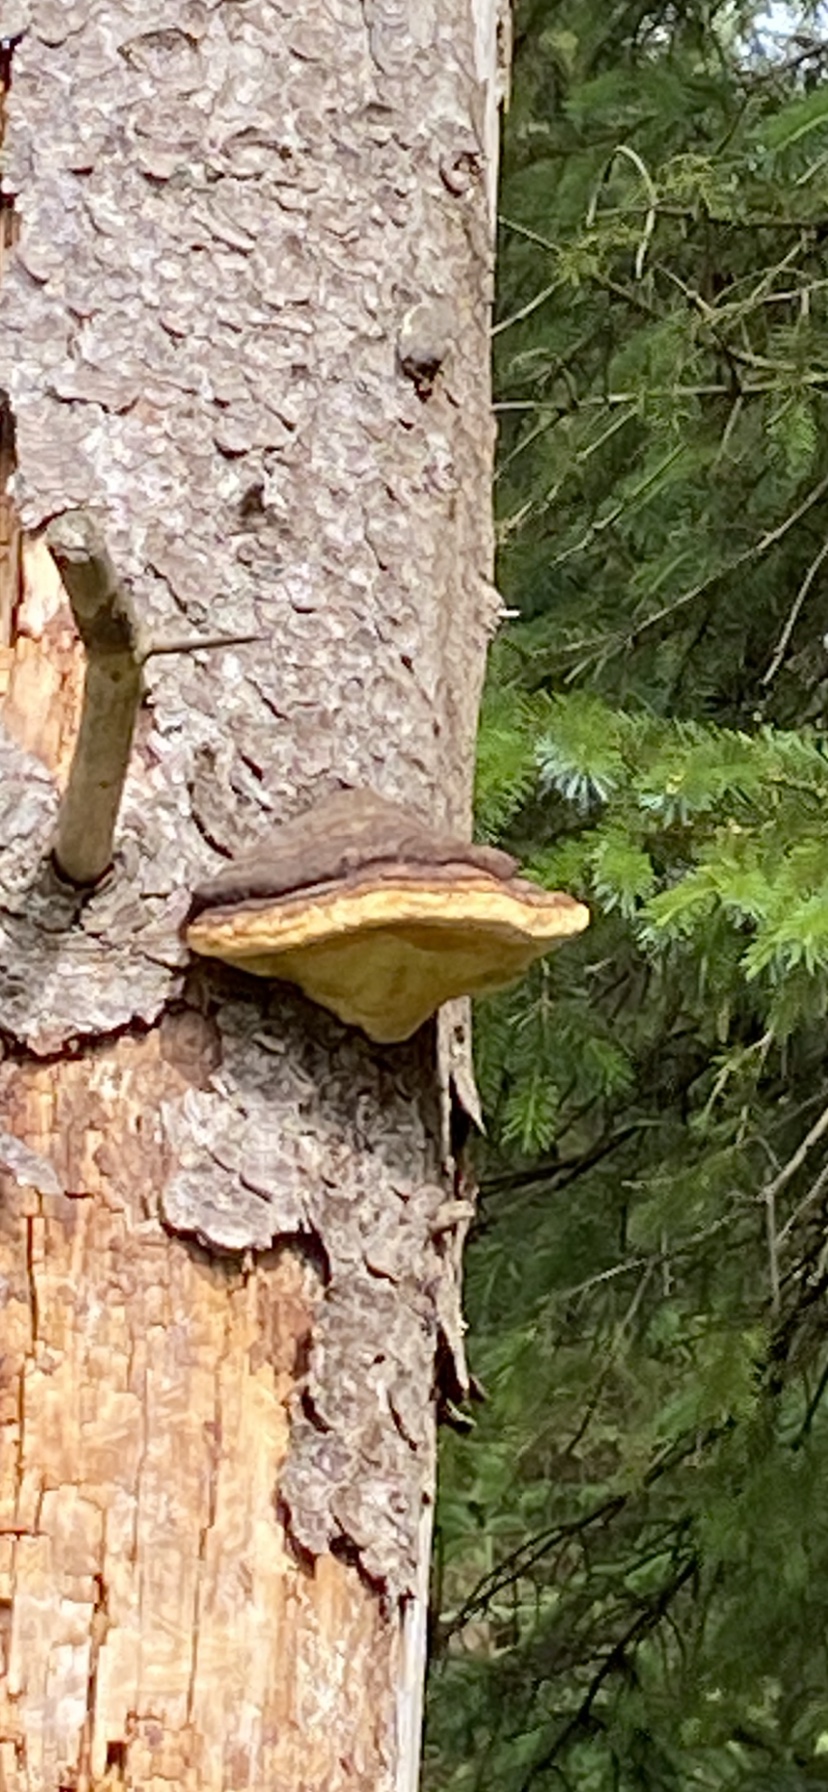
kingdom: Fungi
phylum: Basidiomycota
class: Agaricomycetes
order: Polyporales
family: Fomitopsidaceae
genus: Fomitopsis
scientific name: Fomitopsis pinicola
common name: randbæltet hovporesvamp
